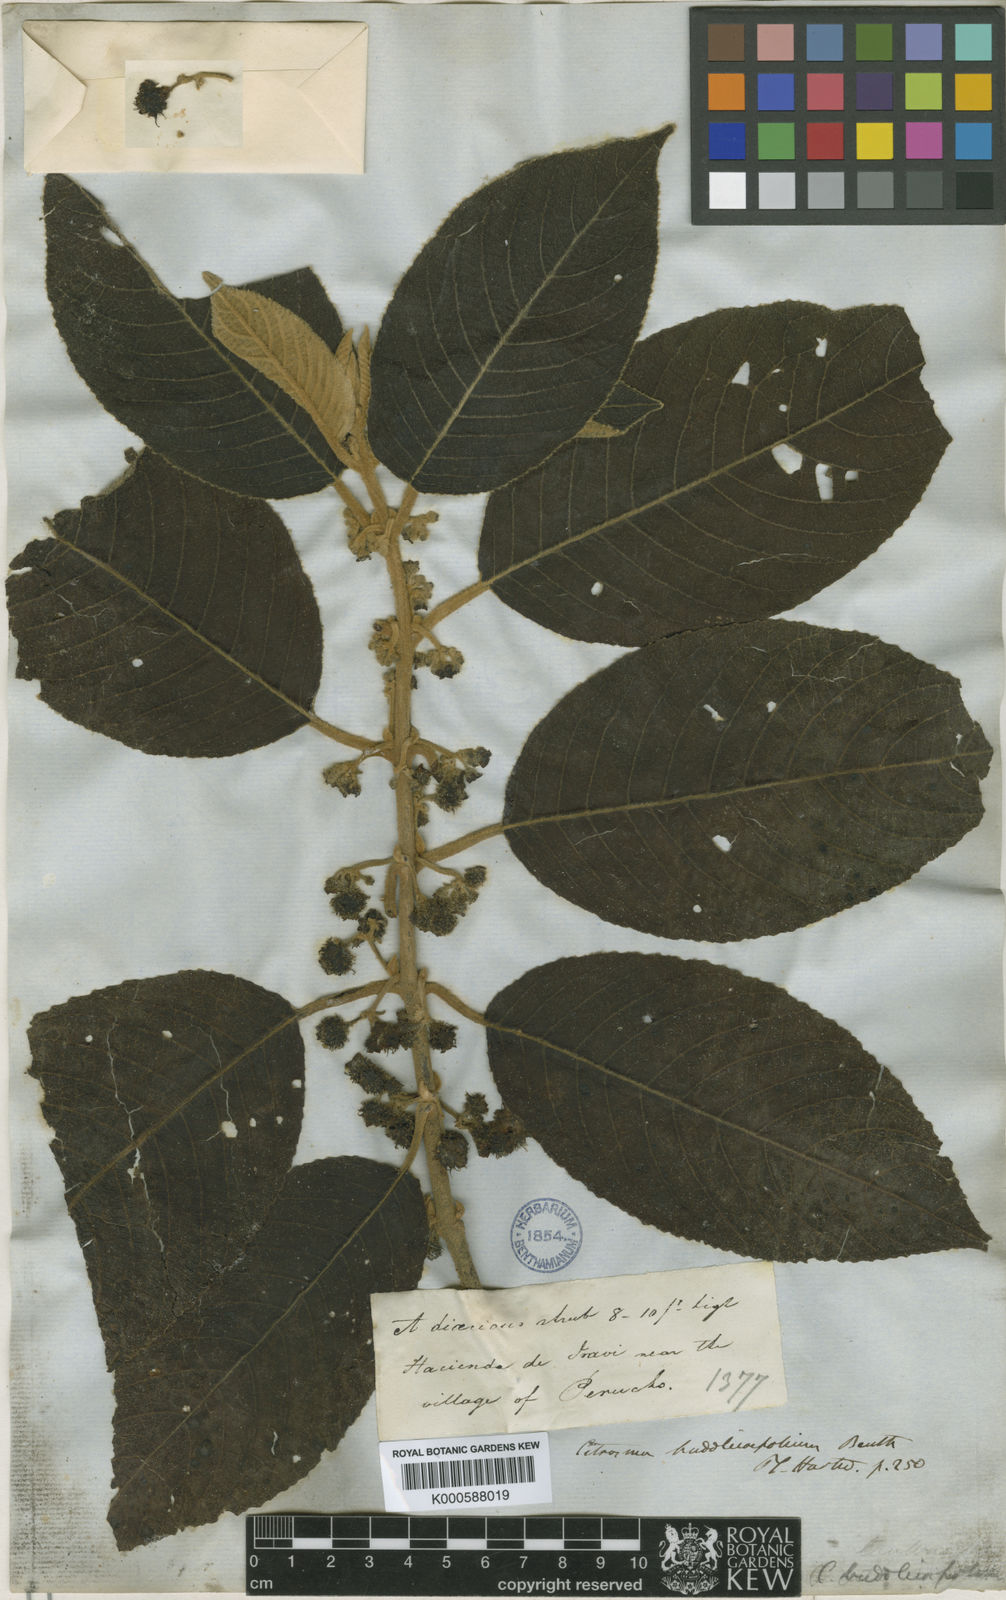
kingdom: Plantae
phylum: Tracheophyta
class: Magnoliopsida
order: Laurales
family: Siparunaceae
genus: Siparuna
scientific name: Siparuna
